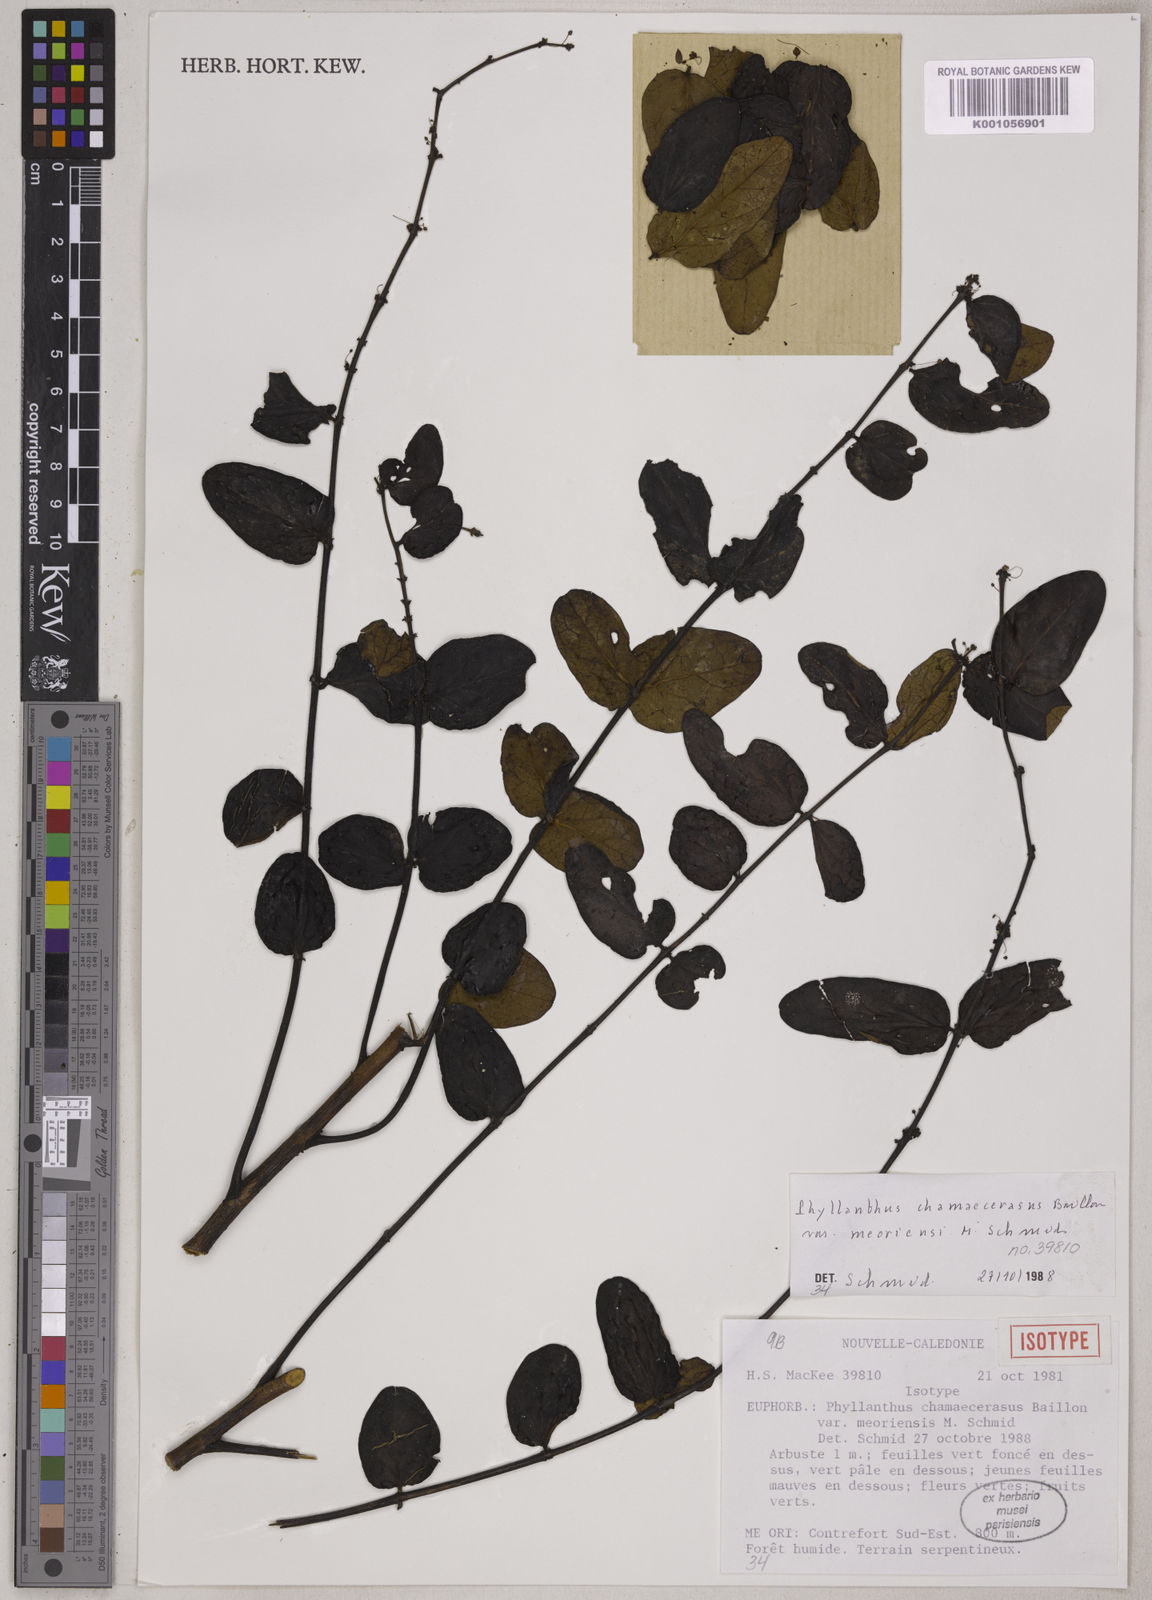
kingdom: Plantae
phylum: Tracheophyta
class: Magnoliopsida
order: Malpighiales
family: Phyllanthaceae
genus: Phyllanthus
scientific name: Phyllanthus chamaecerasus
